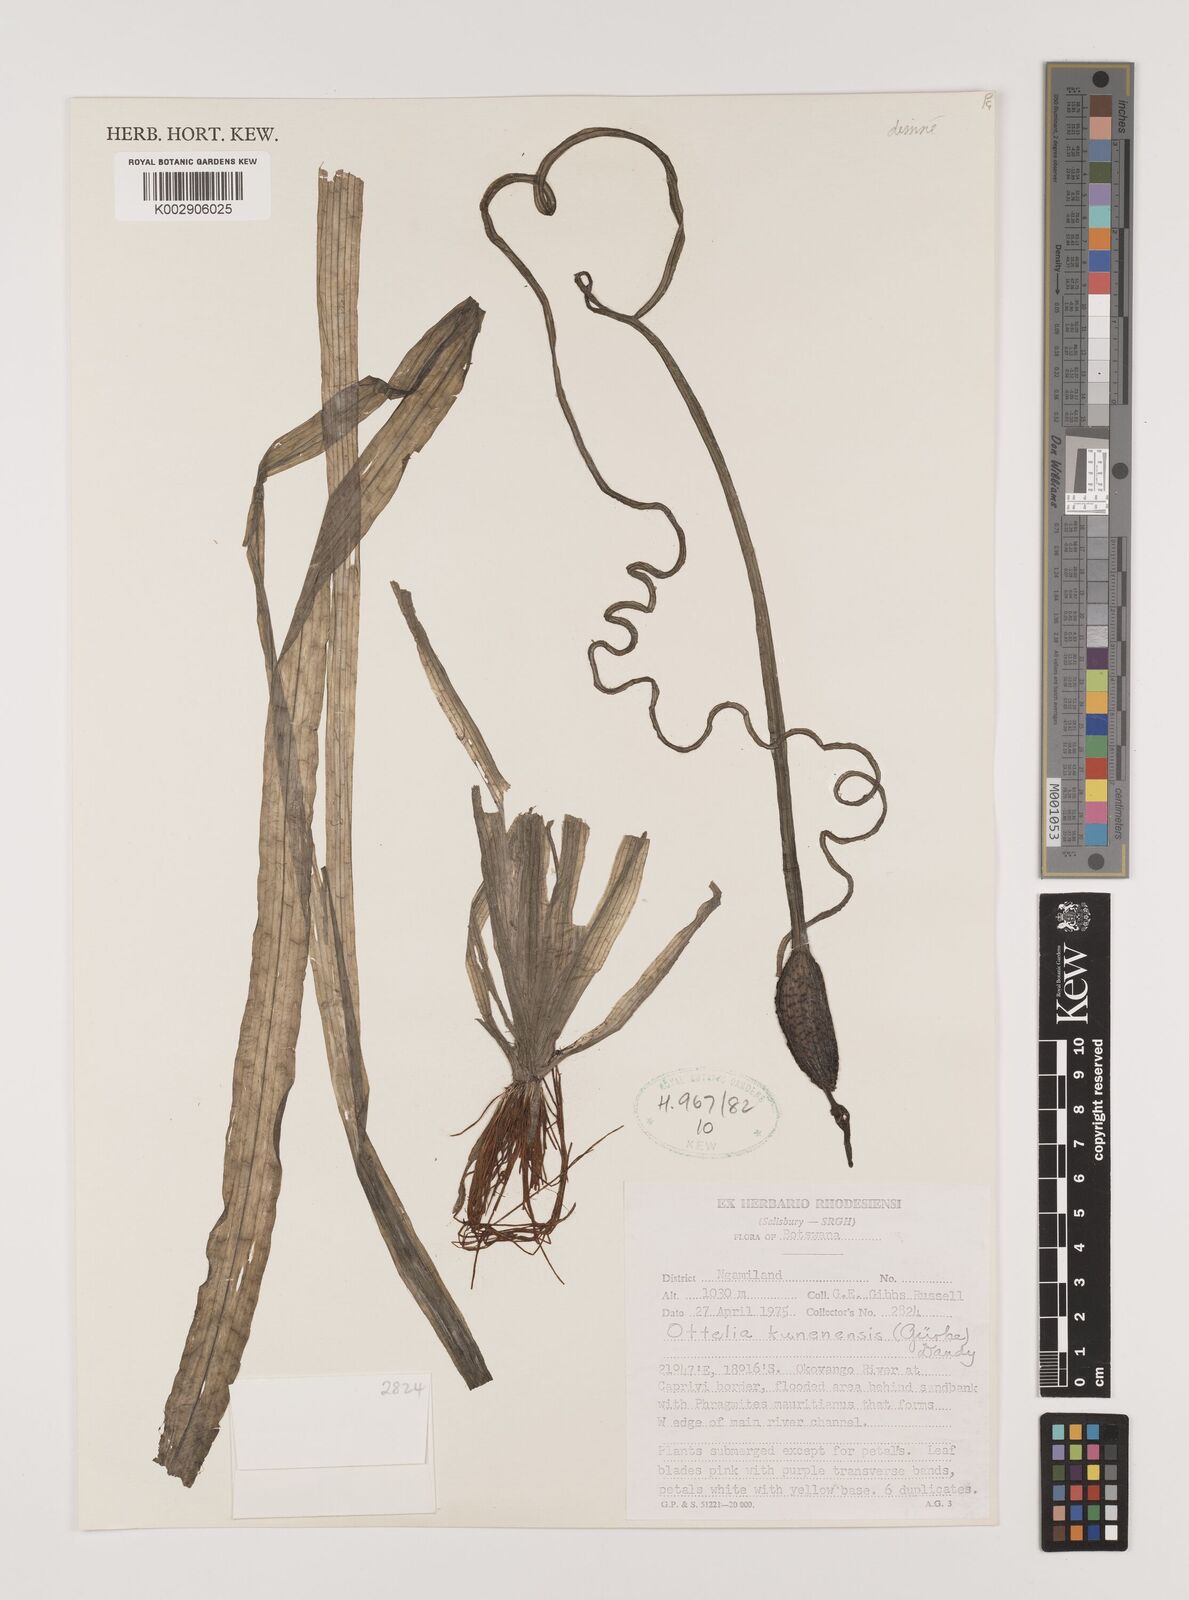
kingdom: Plantae
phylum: Tracheophyta
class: Liliopsida
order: Alismatales
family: Hydrocharitaceae
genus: Ottelia
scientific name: Ottelia kunenensis
